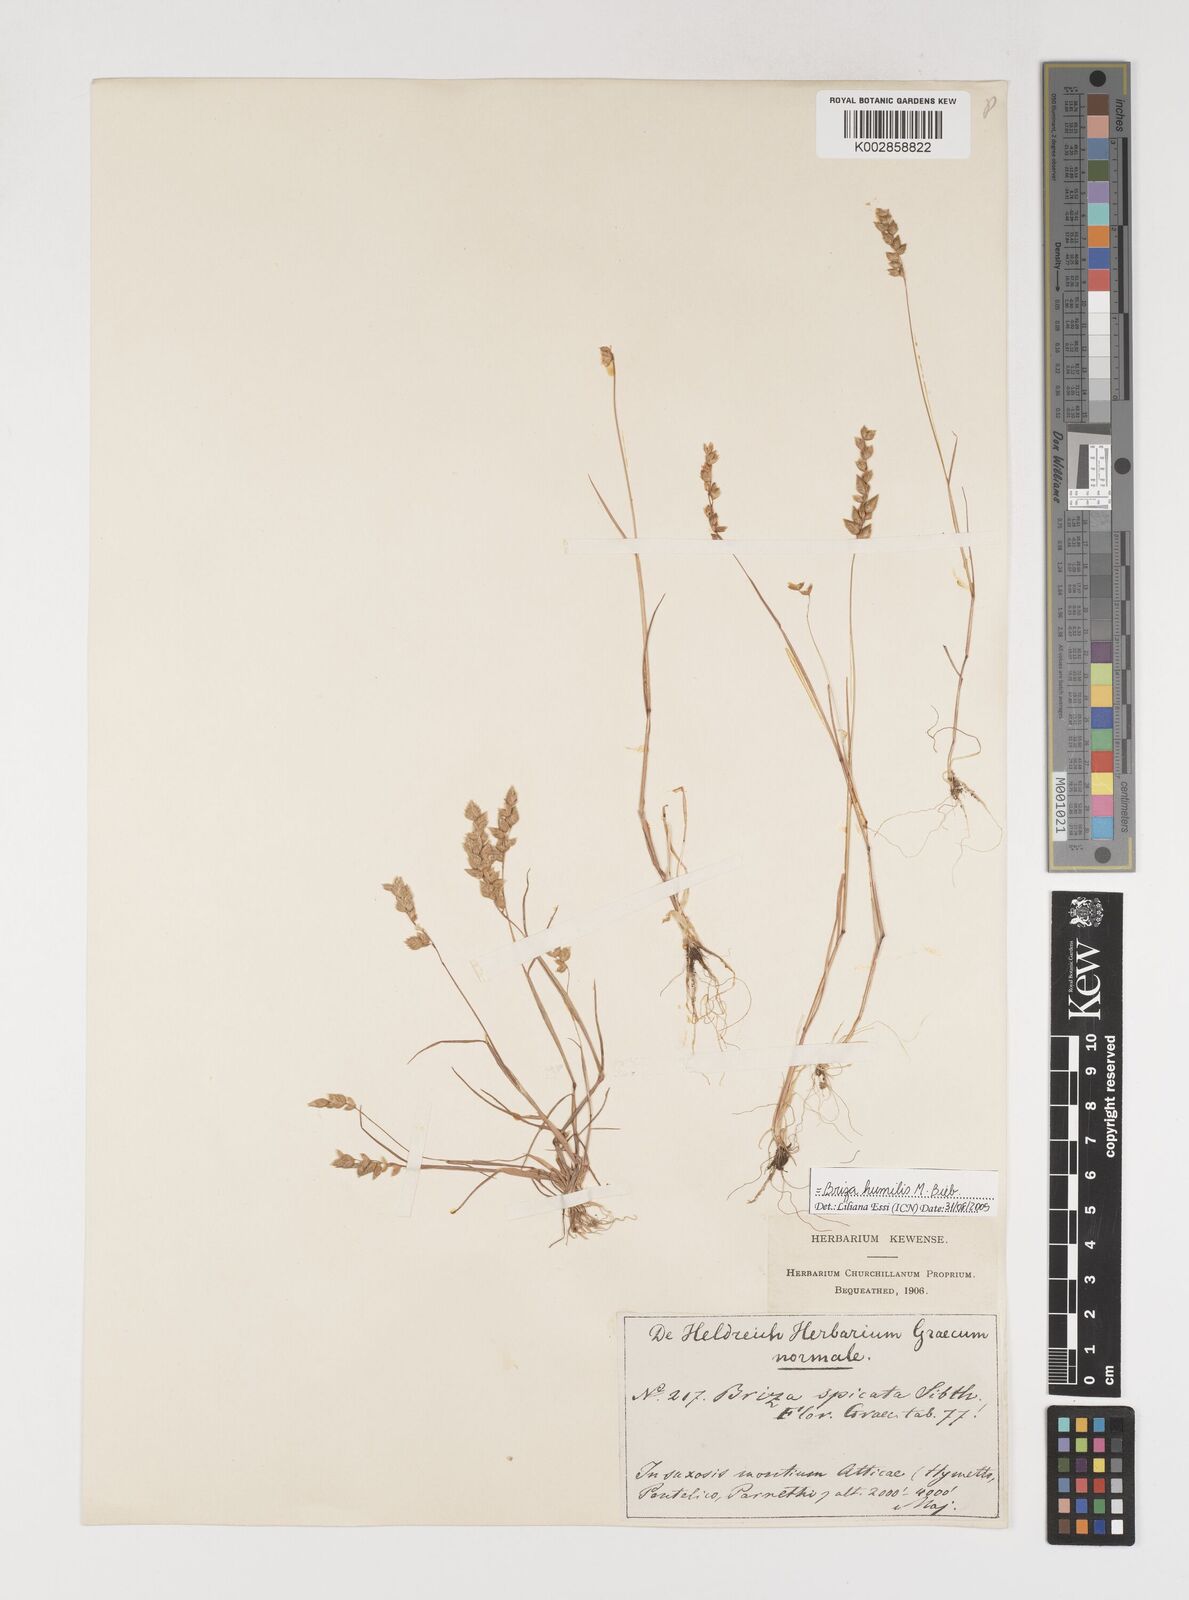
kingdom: Plantae
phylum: Tracheophyta
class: Liliopsida
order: Poales
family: Poaceae
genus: Briza
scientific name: Briza humilis
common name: Spiked quaking grass
